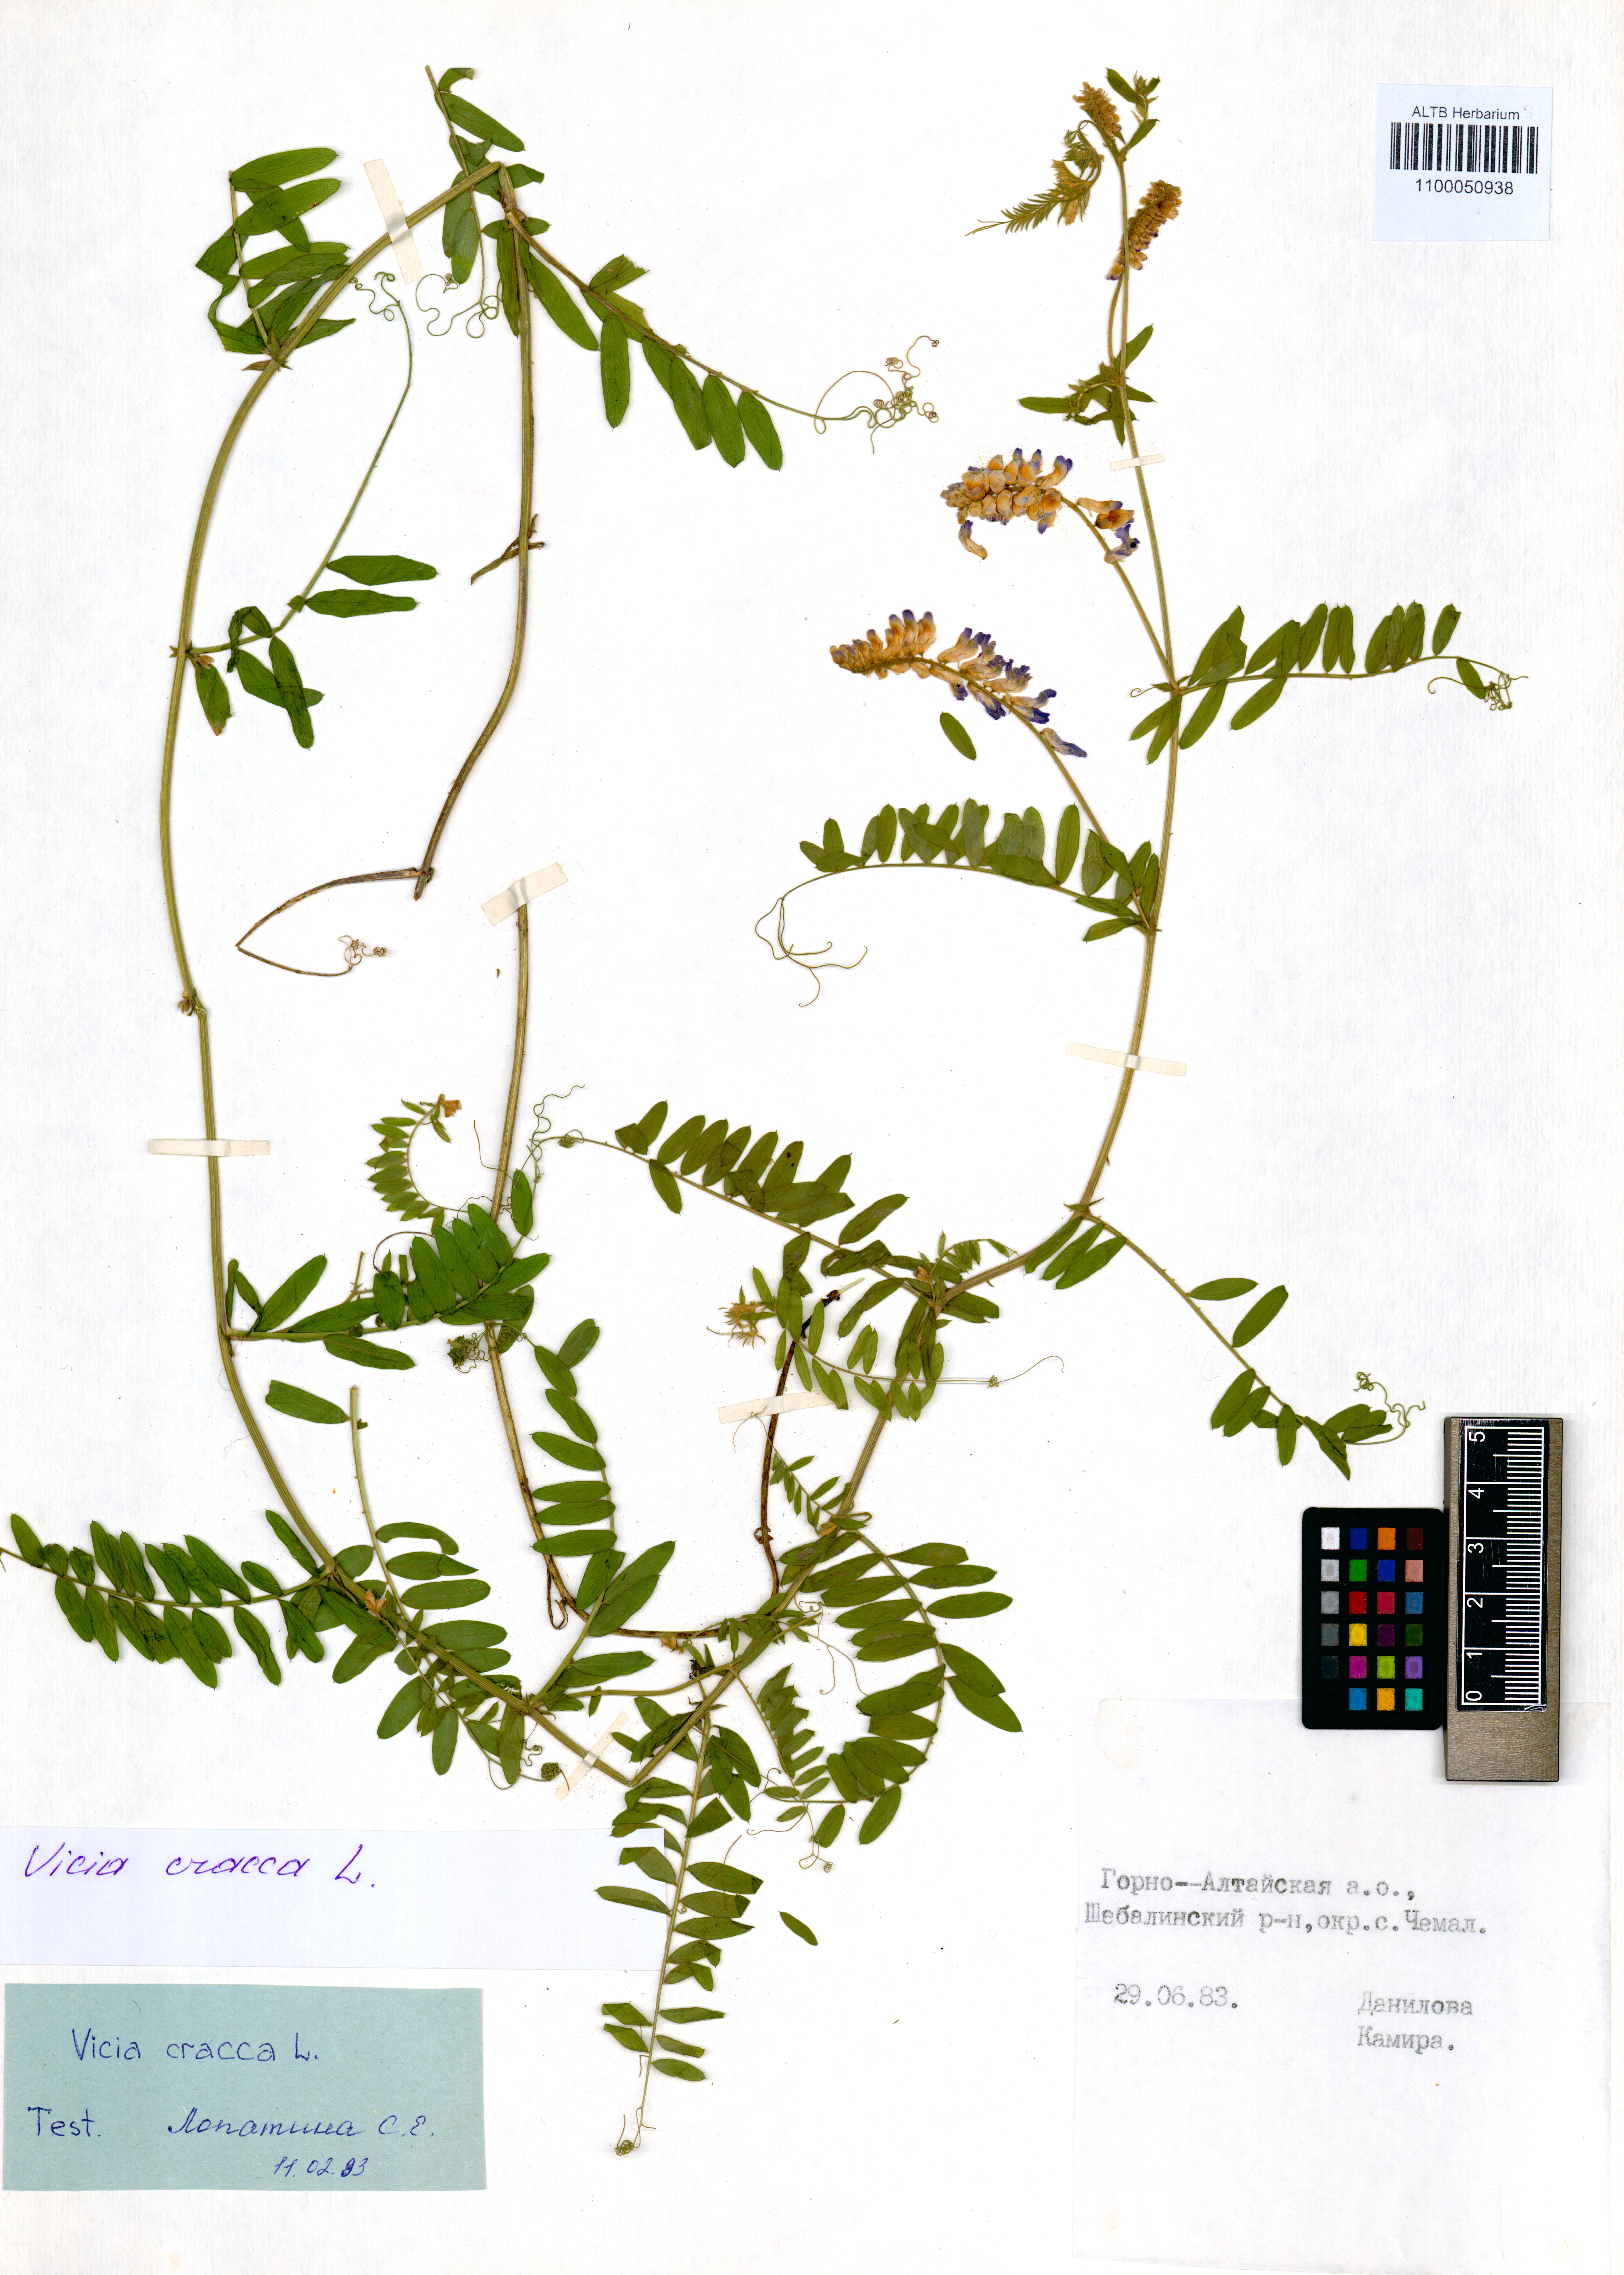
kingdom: Plantae
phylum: Tracheophyta
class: Magnoliopsida
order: Fabales
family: Fabaceae
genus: Vicia
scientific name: Vicia cracca
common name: Bird vetch
